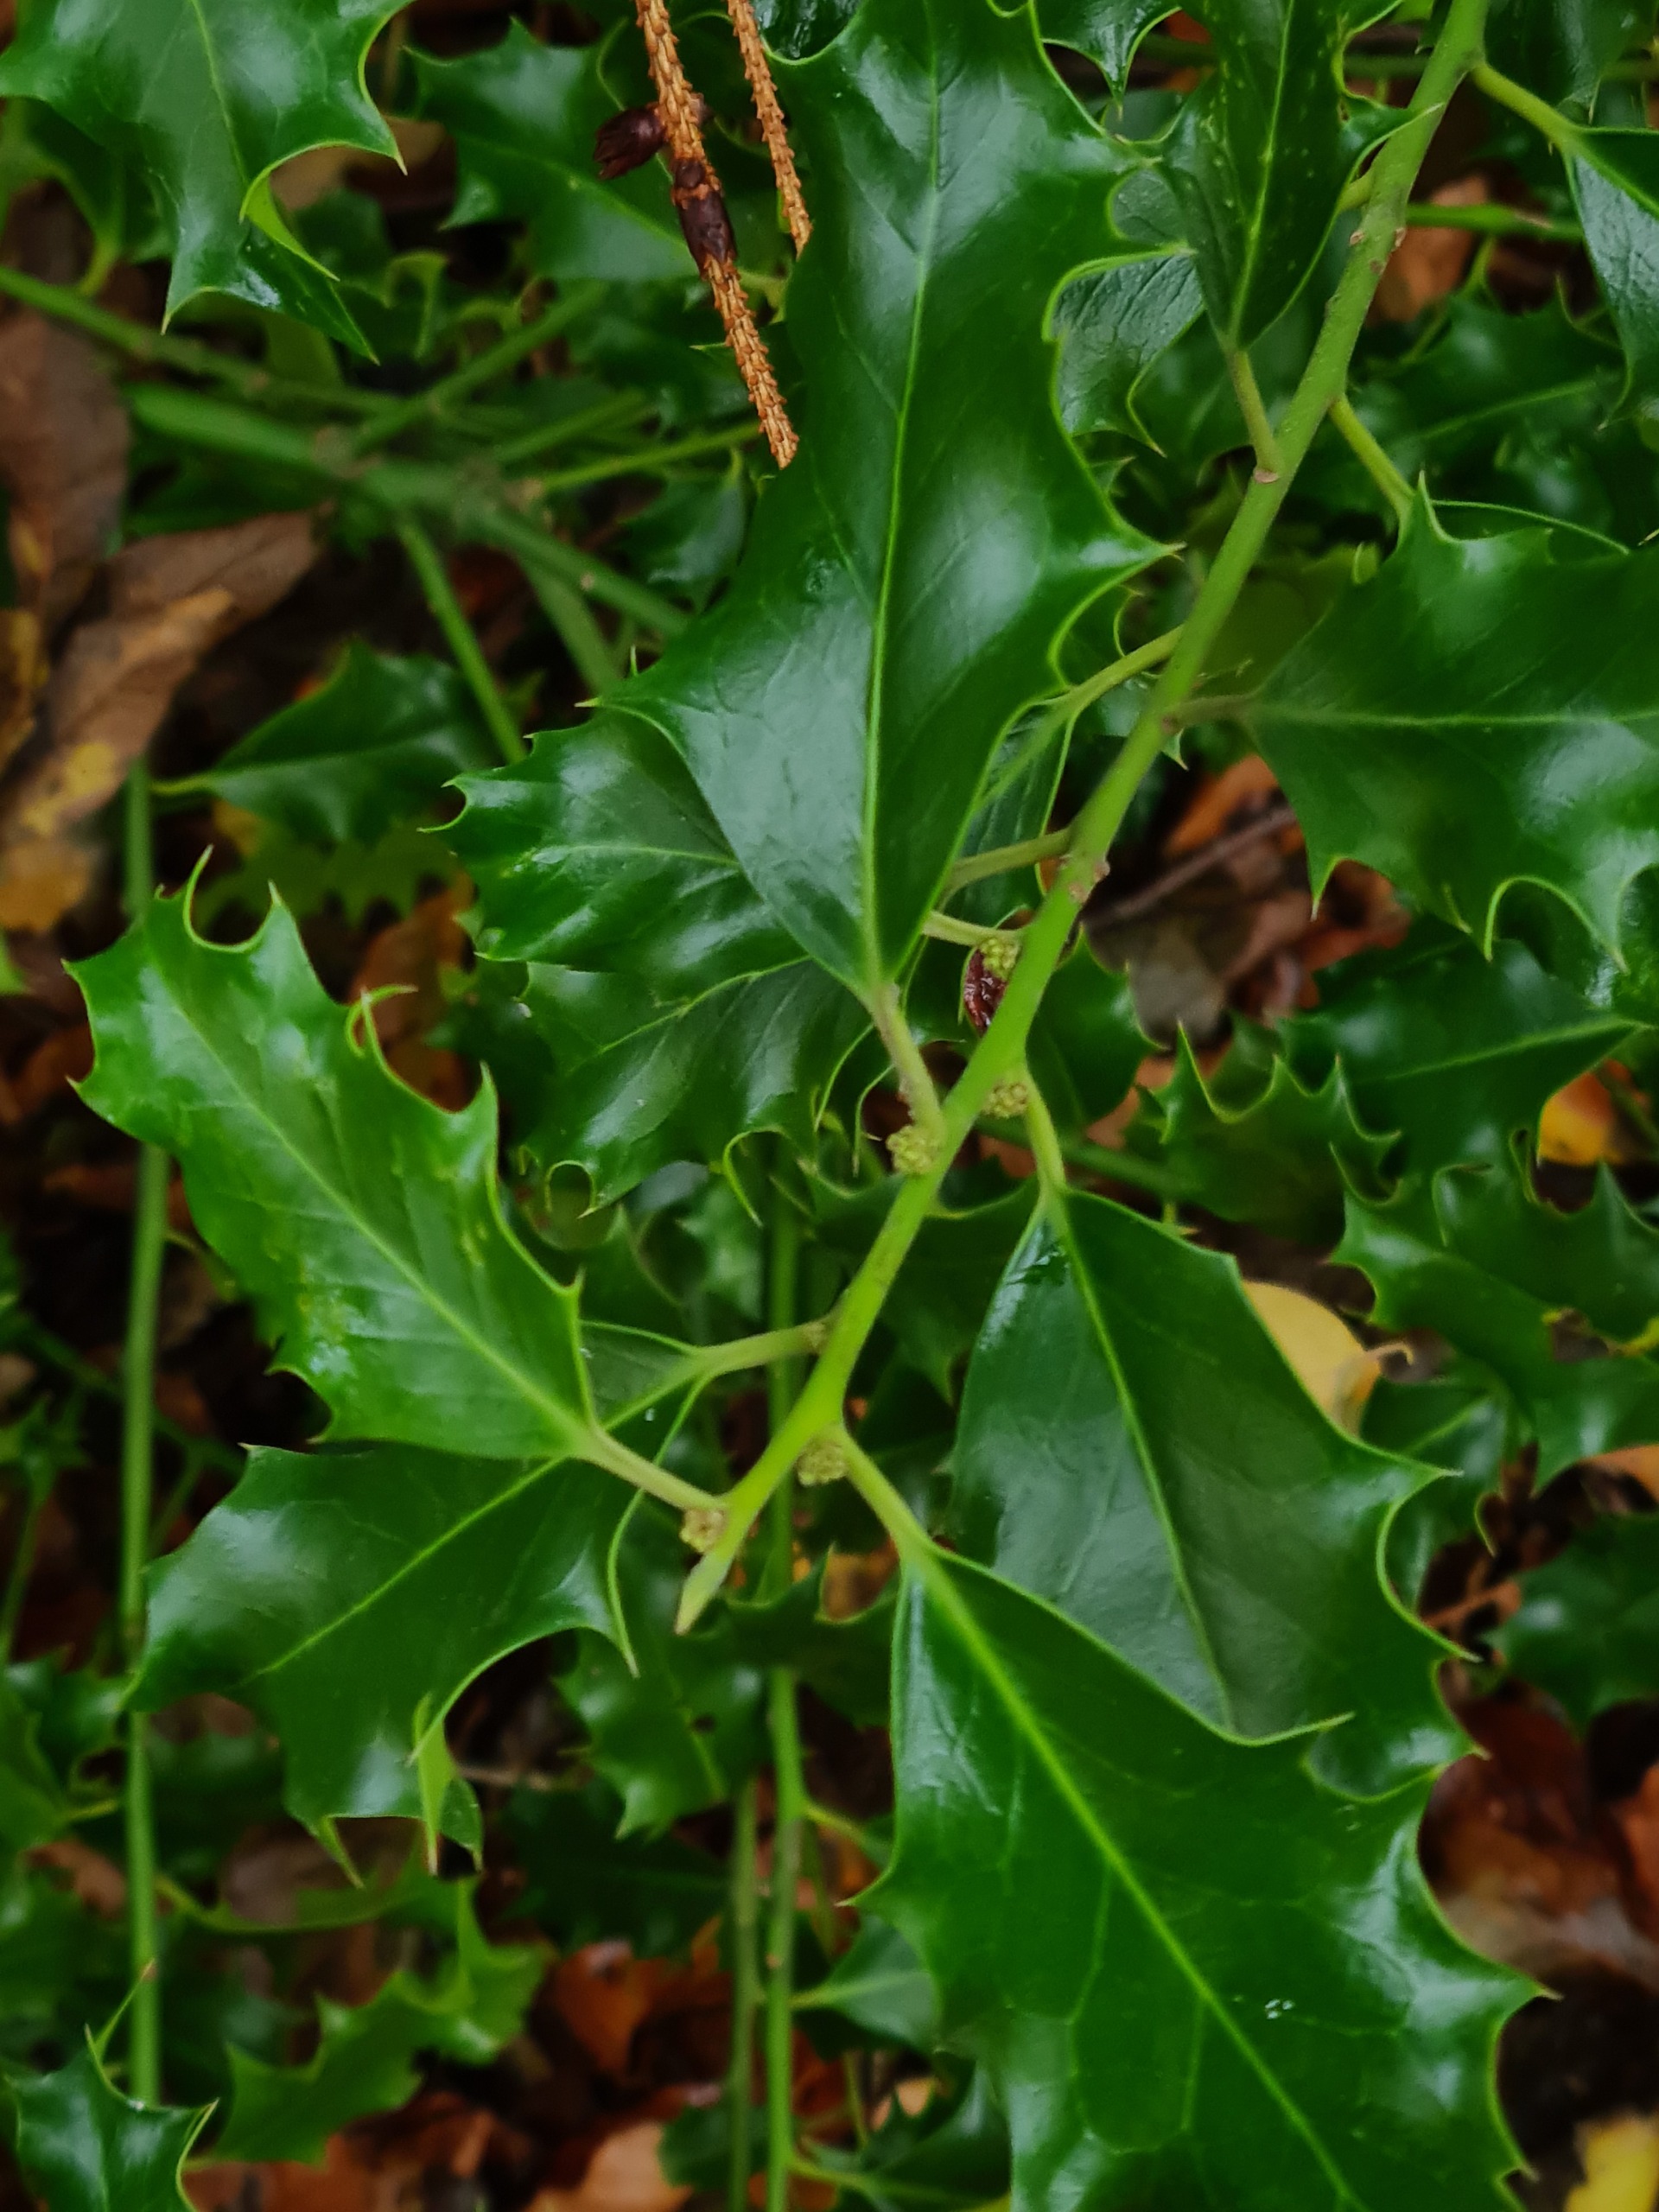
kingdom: Plantae
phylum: Tracheophyta
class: Magnoliopsida
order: Aquifoliales
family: Aquifoliaceae
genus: Ilex
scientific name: Ilex aquifolium
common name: Kristtorn
